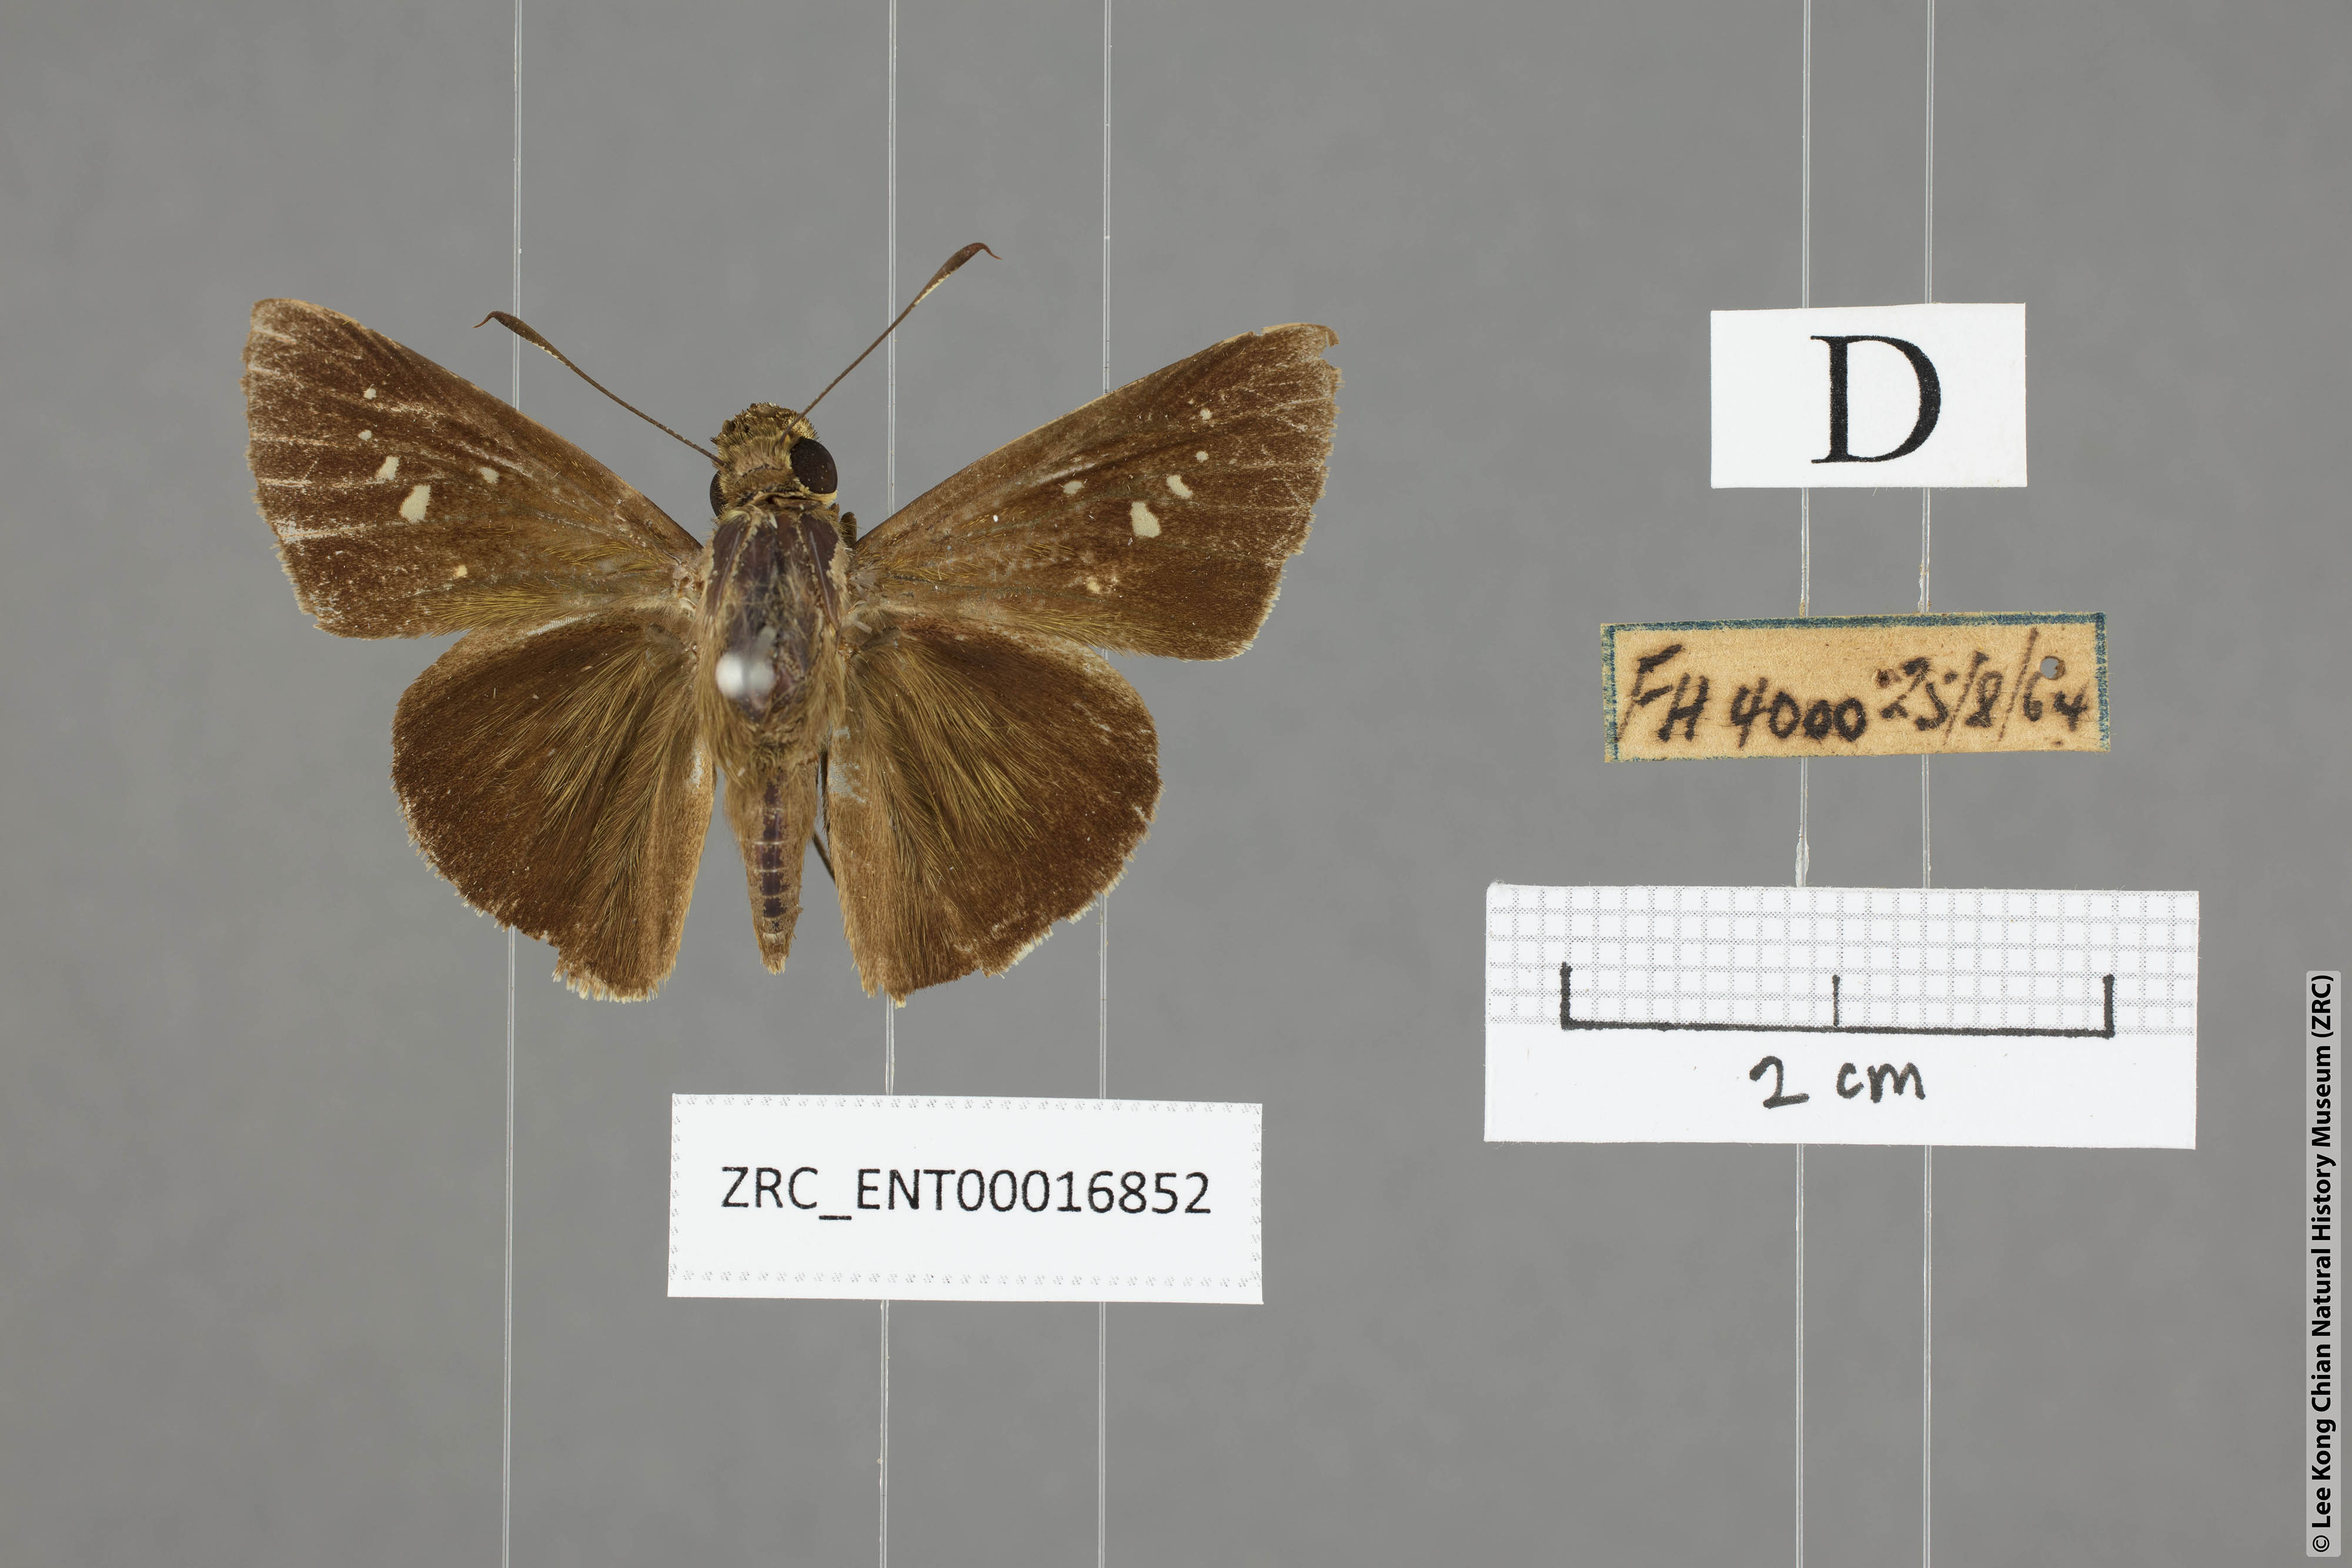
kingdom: Animalia
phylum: Arthropoda
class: Insecta
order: Lepidoptera
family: Hesperiidae
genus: Caltoris
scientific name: Caltoris sirius
